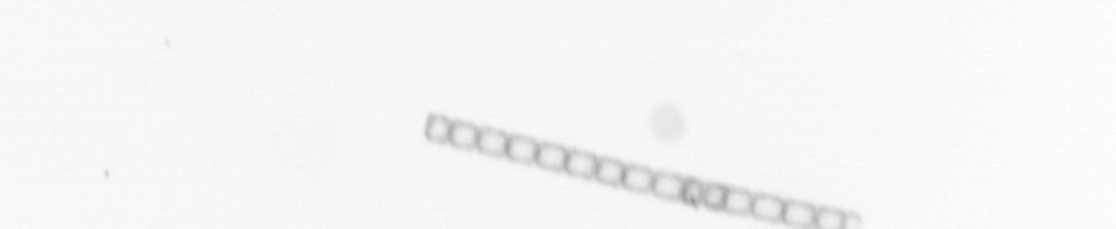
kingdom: Chromista
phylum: Ochrophyta
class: Bacillariophyceae
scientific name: Bacillariophyceae
